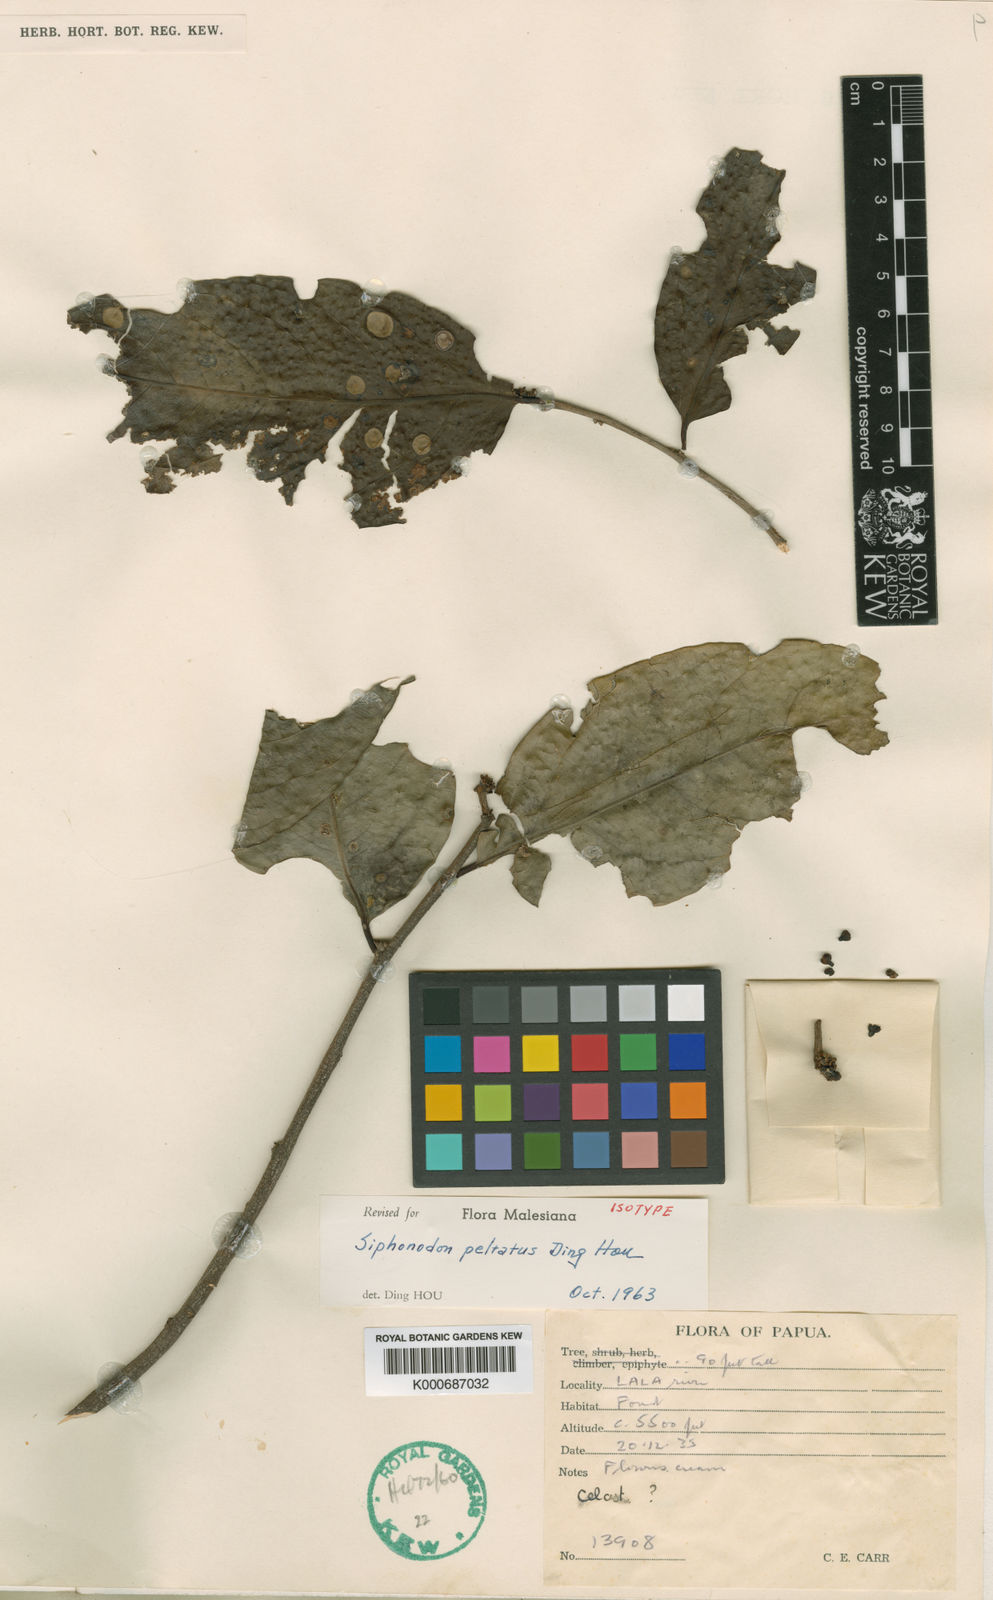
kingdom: Plantae
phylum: Tracheophyta
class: Magnoliopsida
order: Celastrales
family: Celastraceae
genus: Siphonodon
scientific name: Siphonodon peltatus
